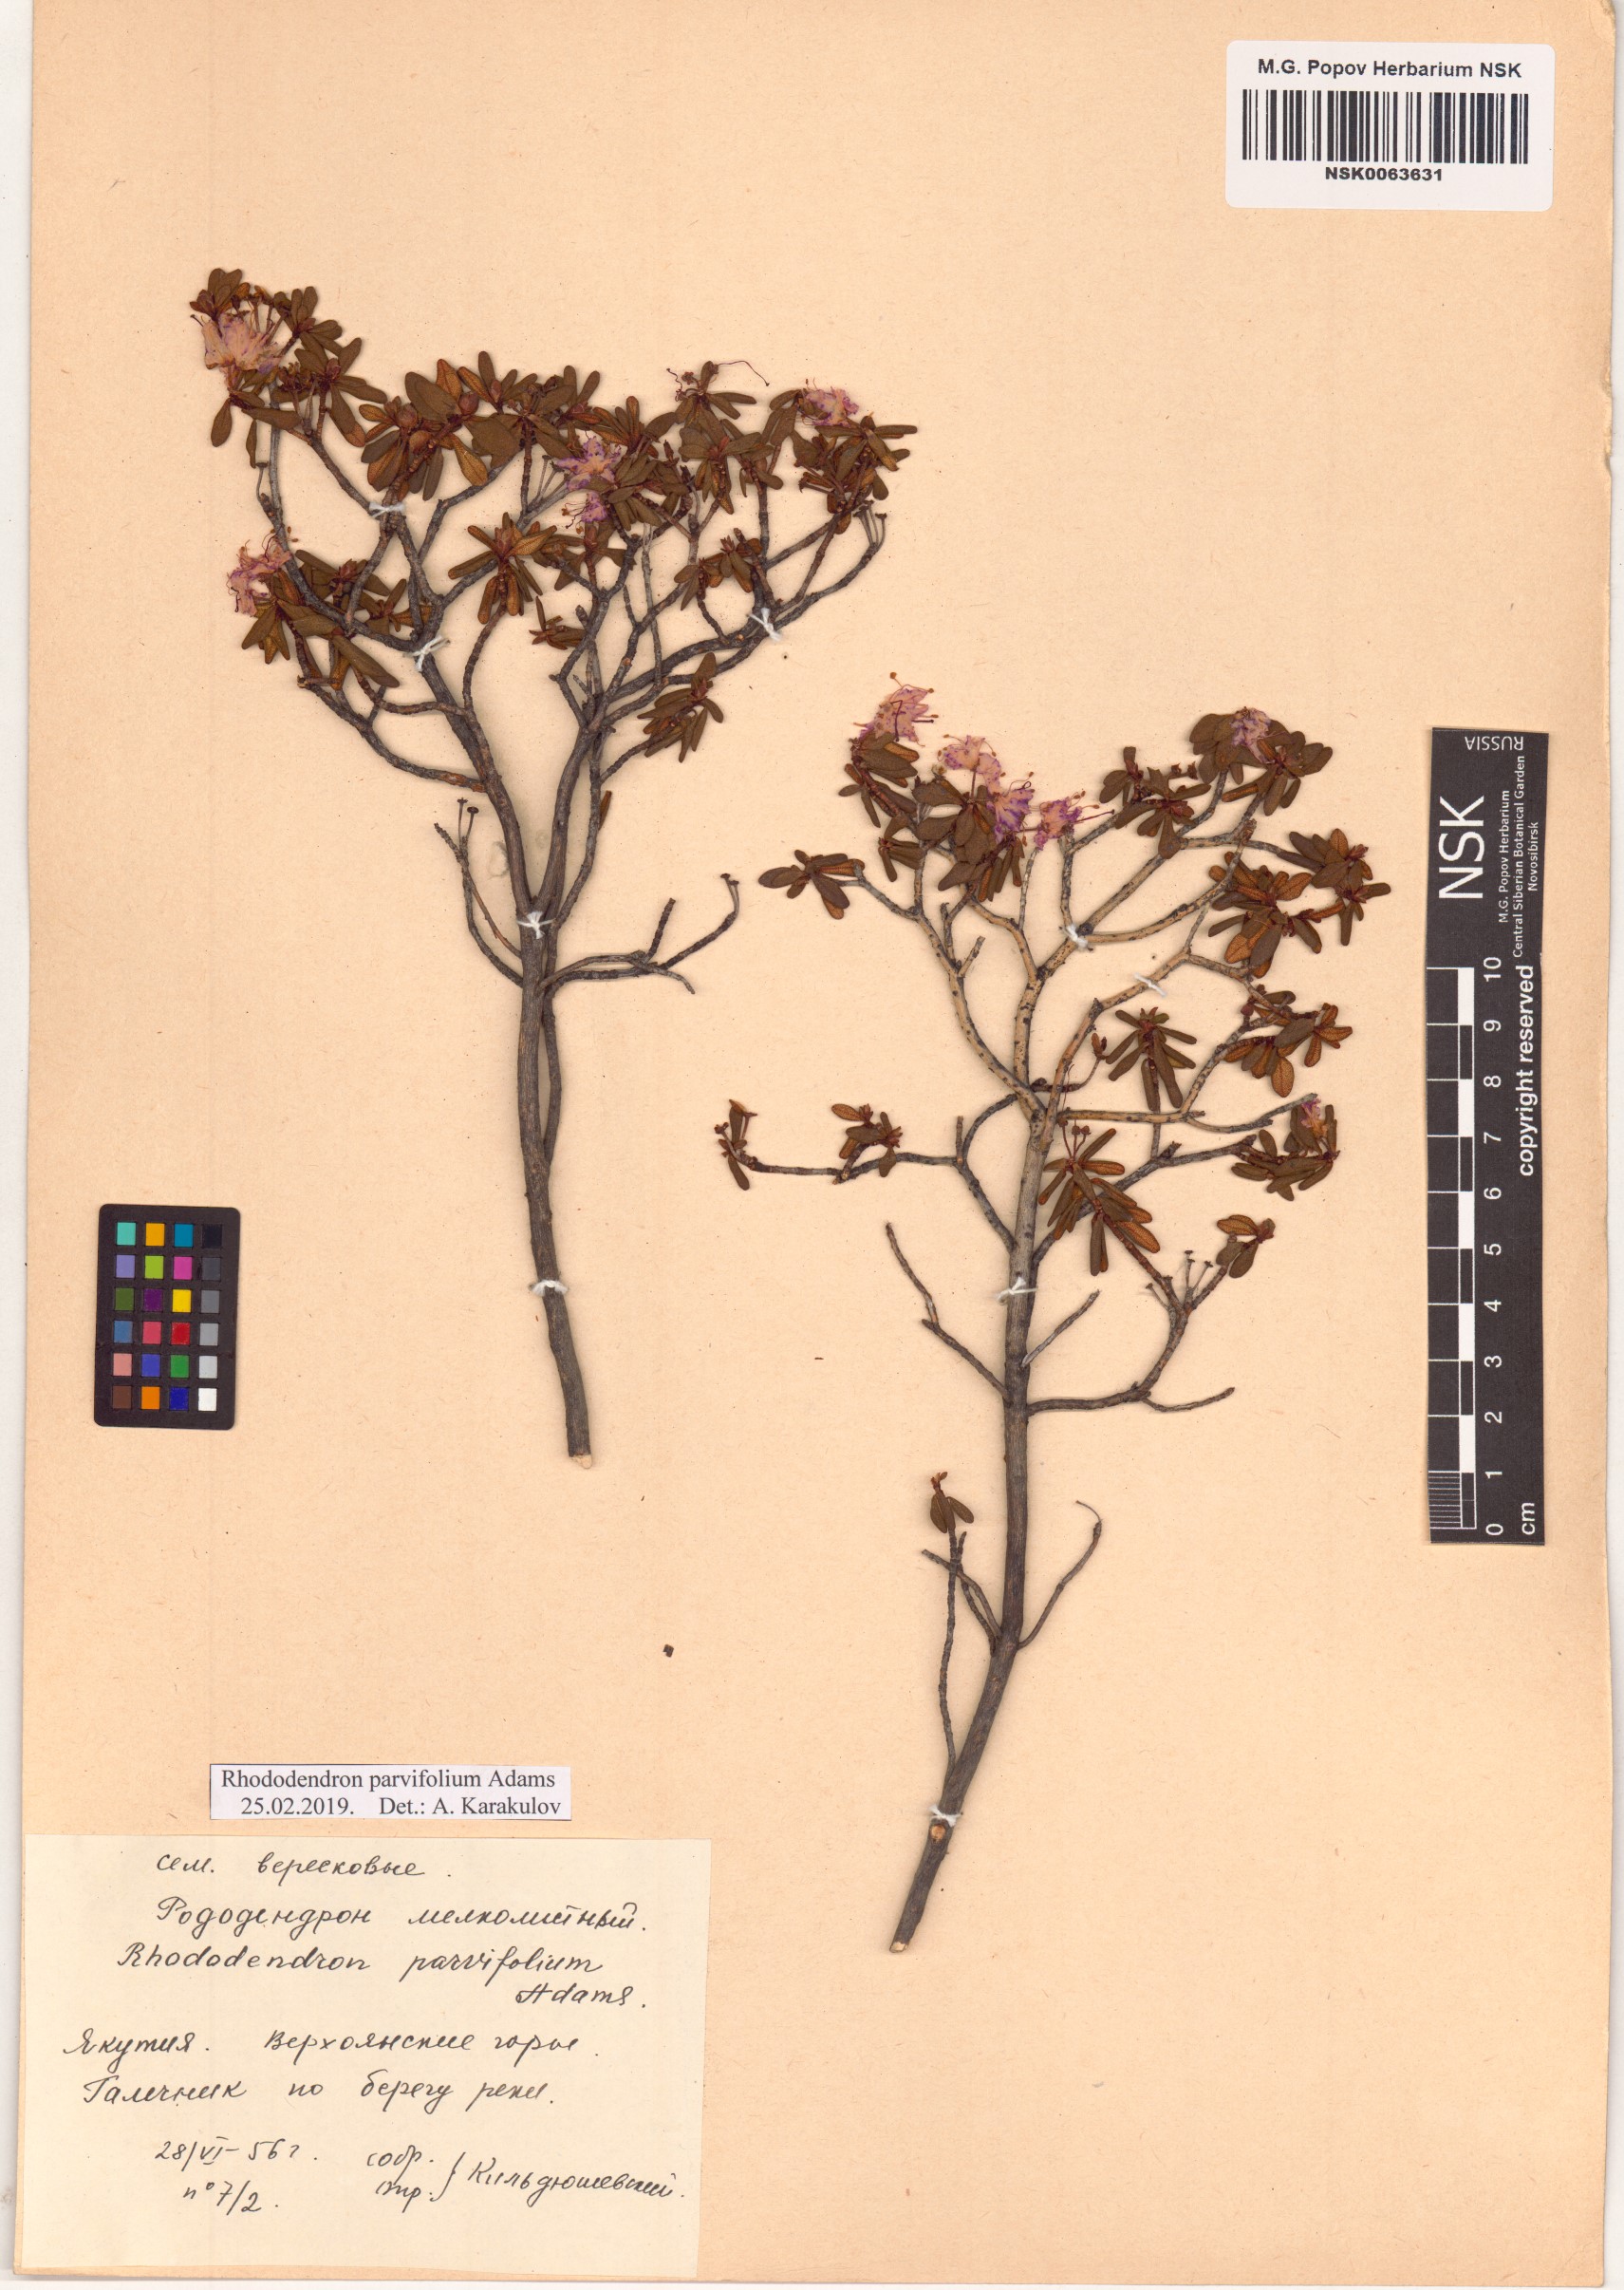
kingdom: Plantae
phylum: Tracheophyta
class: Magnoliopsida
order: Ericales
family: Ericaceae
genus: Rhododendron
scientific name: Rhododendron parvifolium
